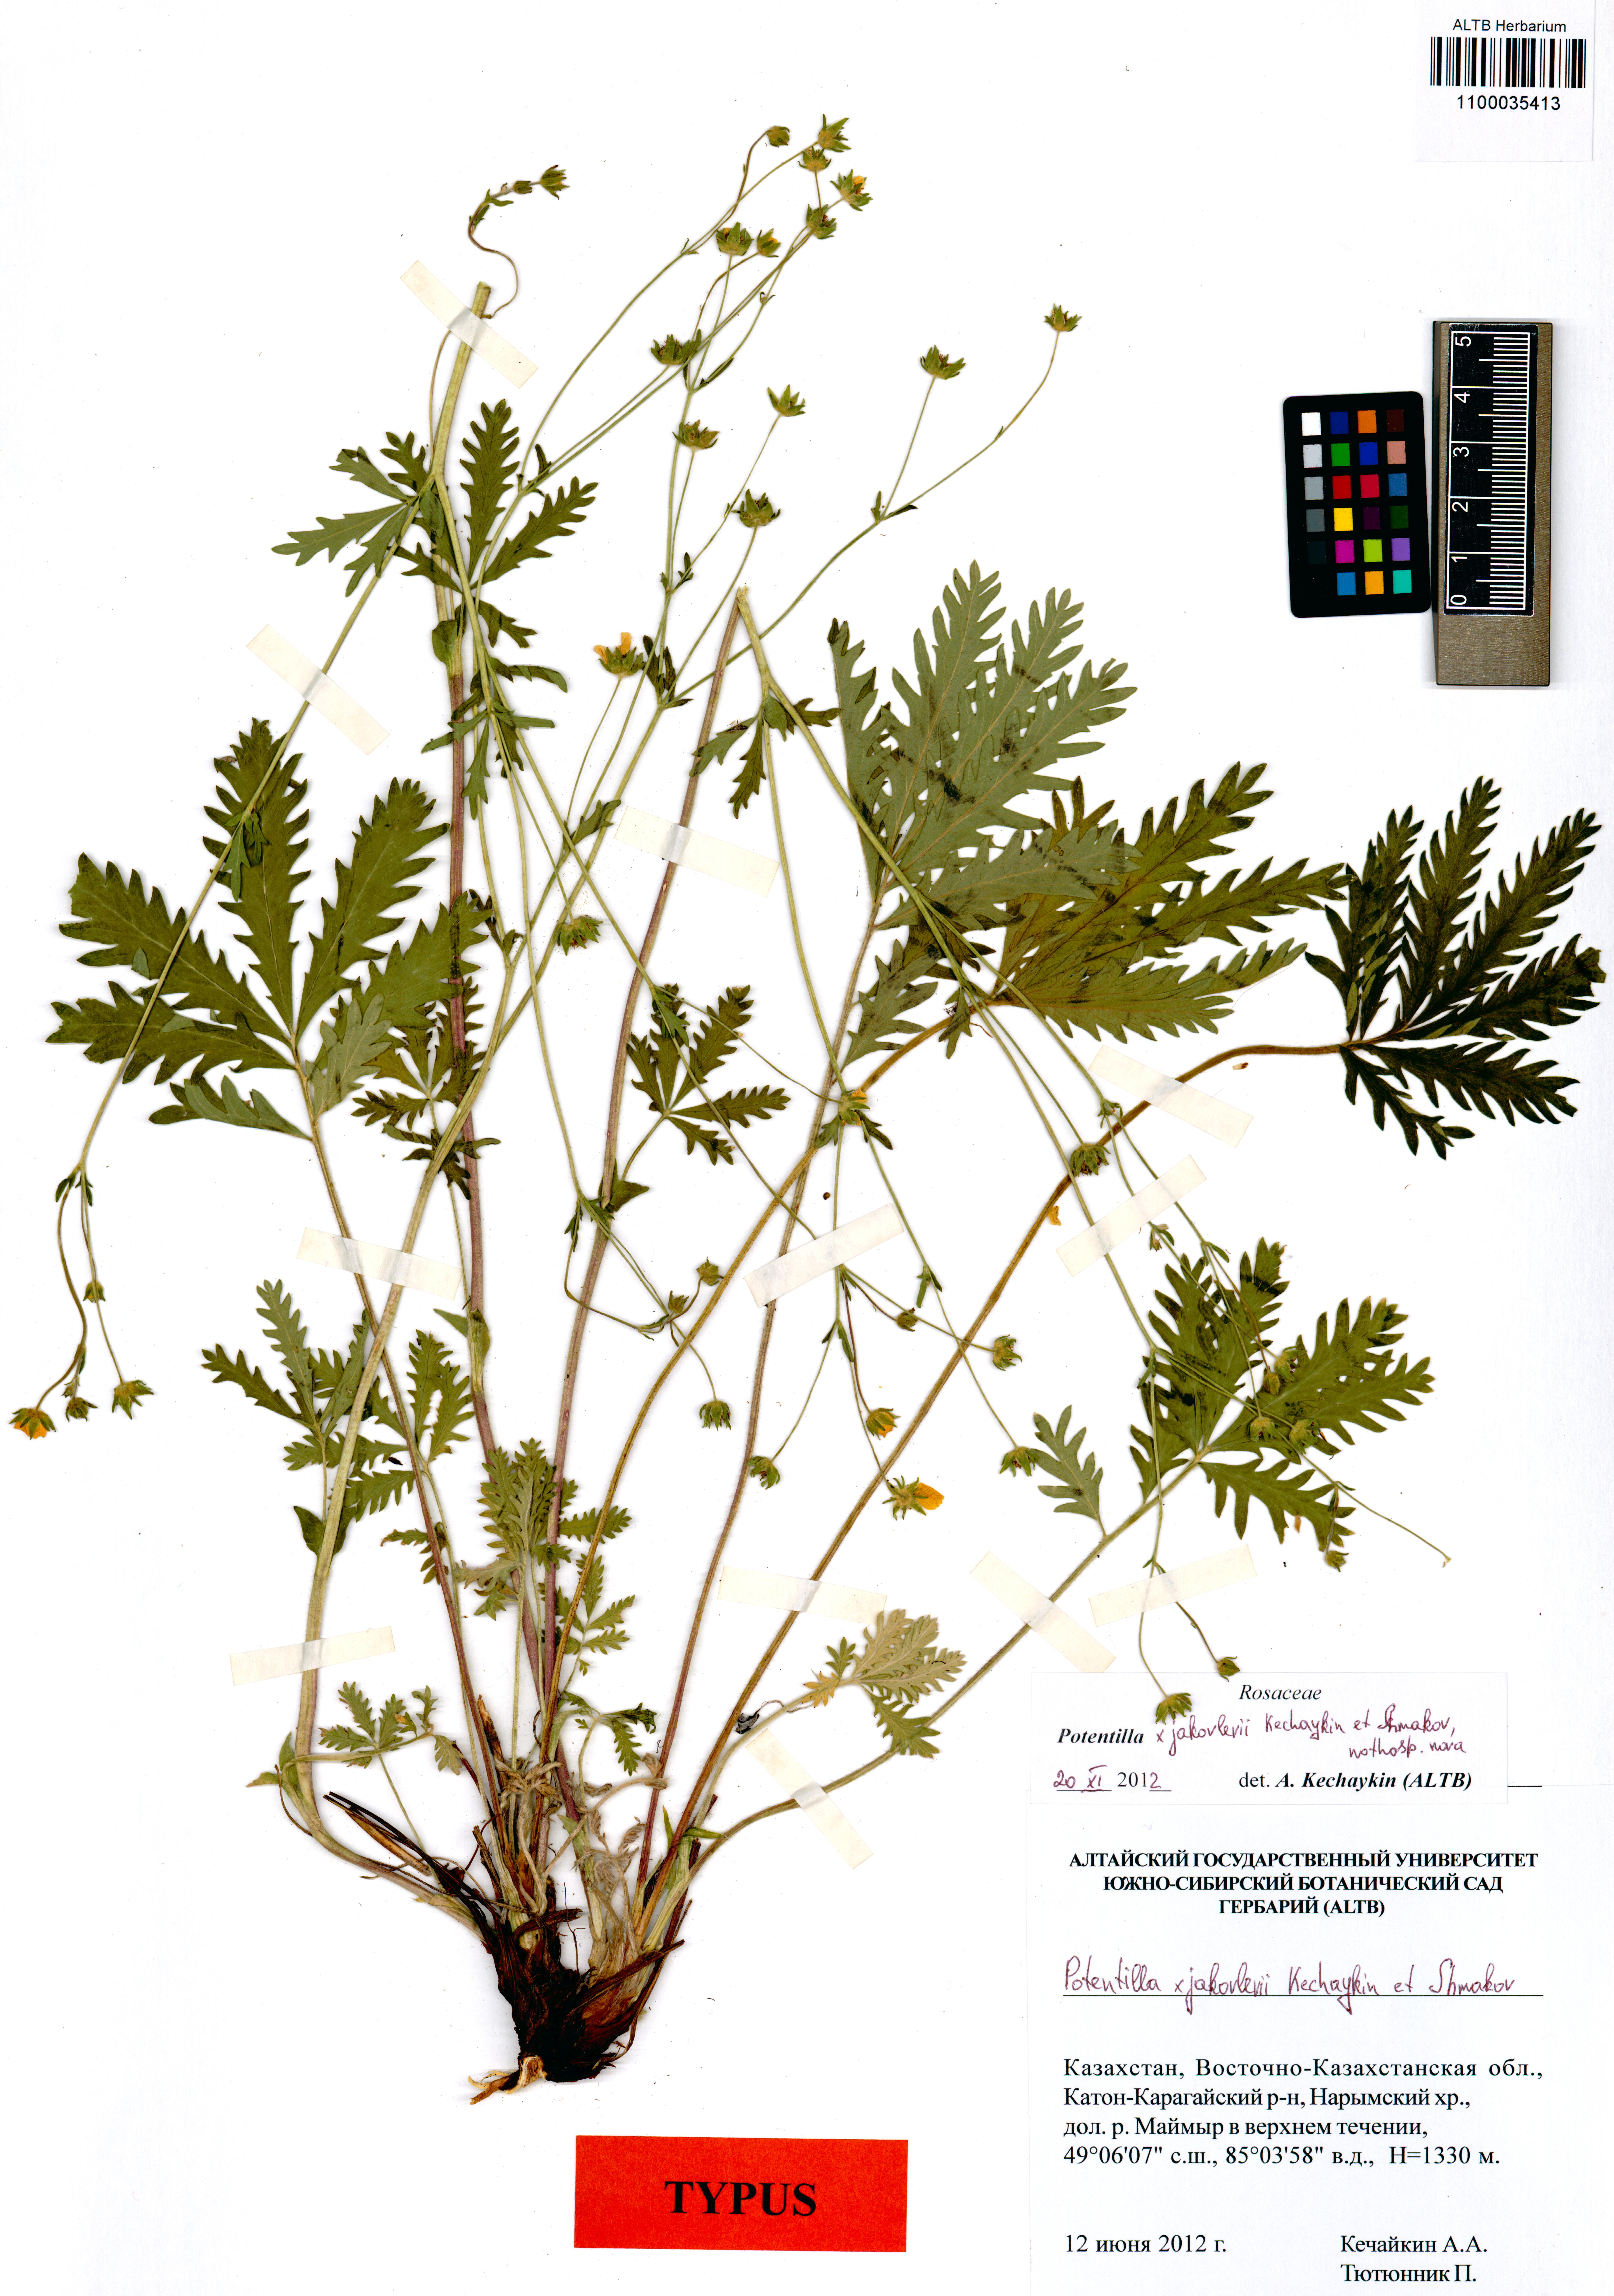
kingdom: Plantae
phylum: Tracheophyta
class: Magnoliopsida
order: Rosales
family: Rosaceae
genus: Potentilla
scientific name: Potentilla jakovlevii
